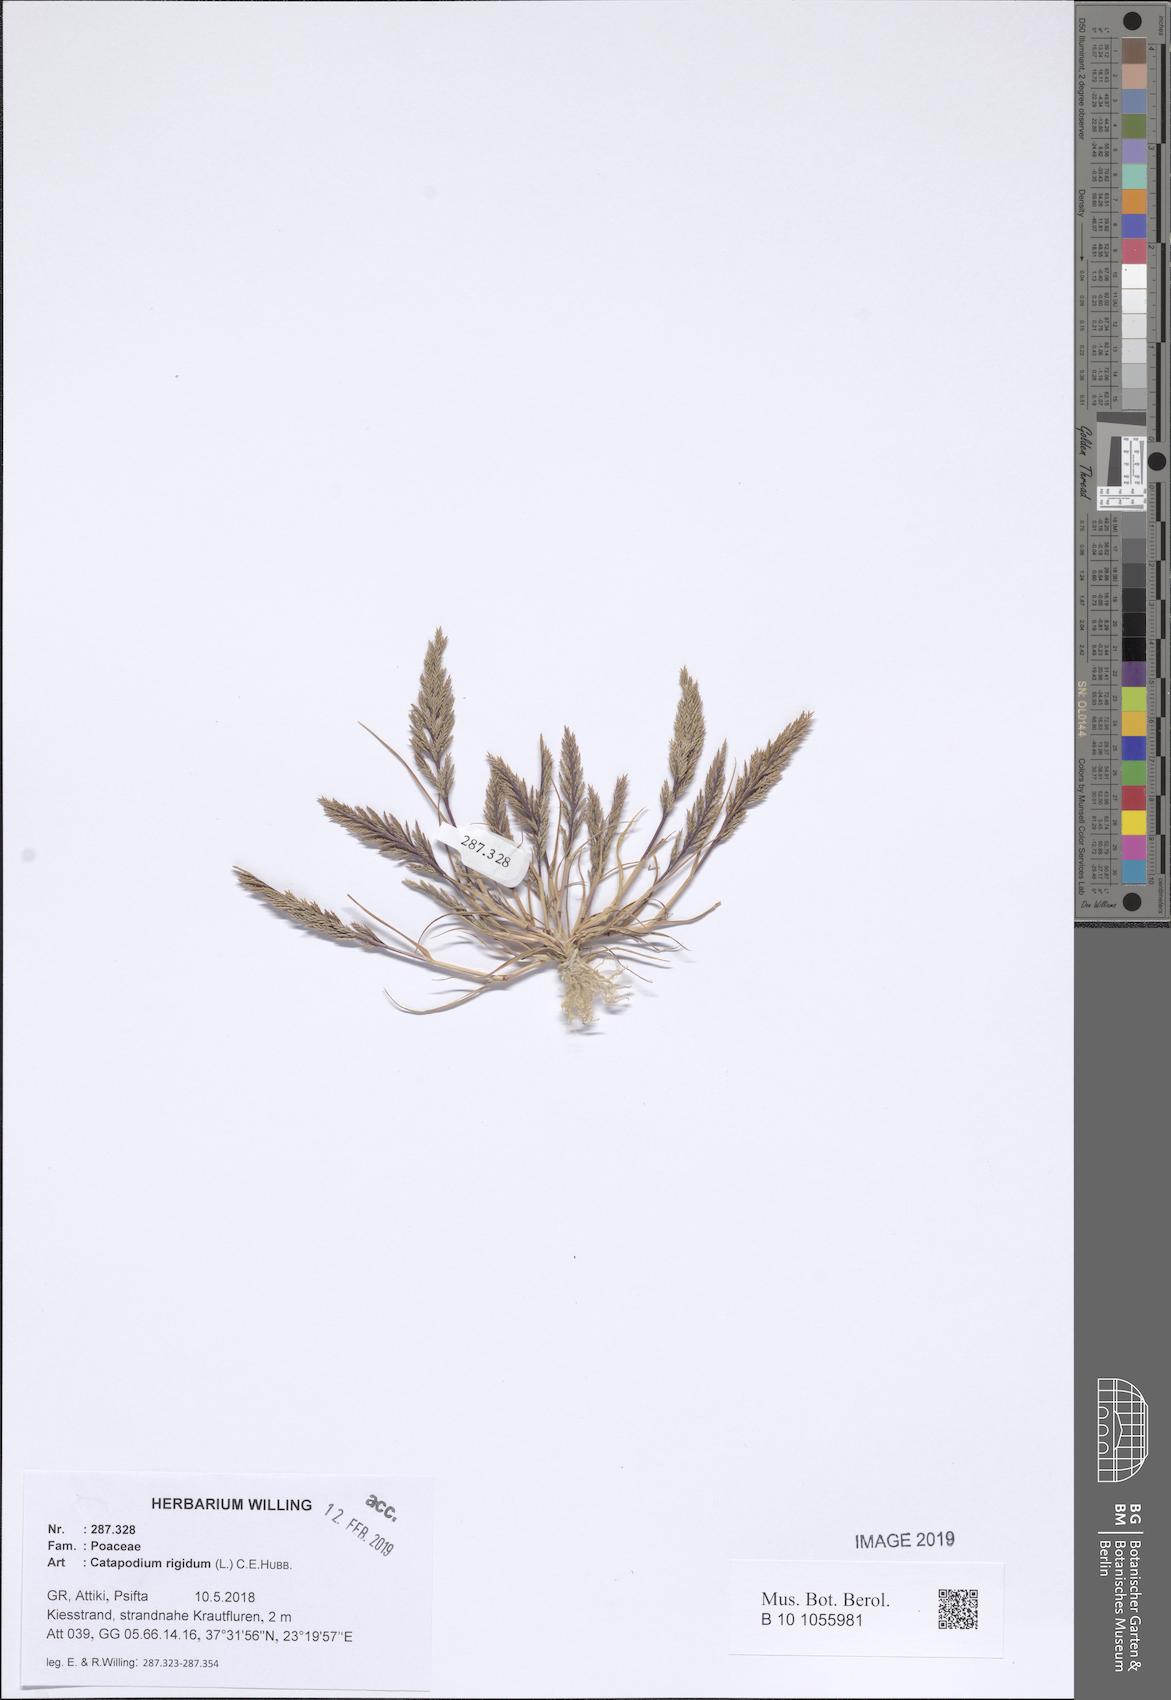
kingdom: Plantae
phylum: Tracheophyta
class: Liliopsida
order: Poales
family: Poaceae
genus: Catapodium
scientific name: Catapodium rigidum
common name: Fern-grass
